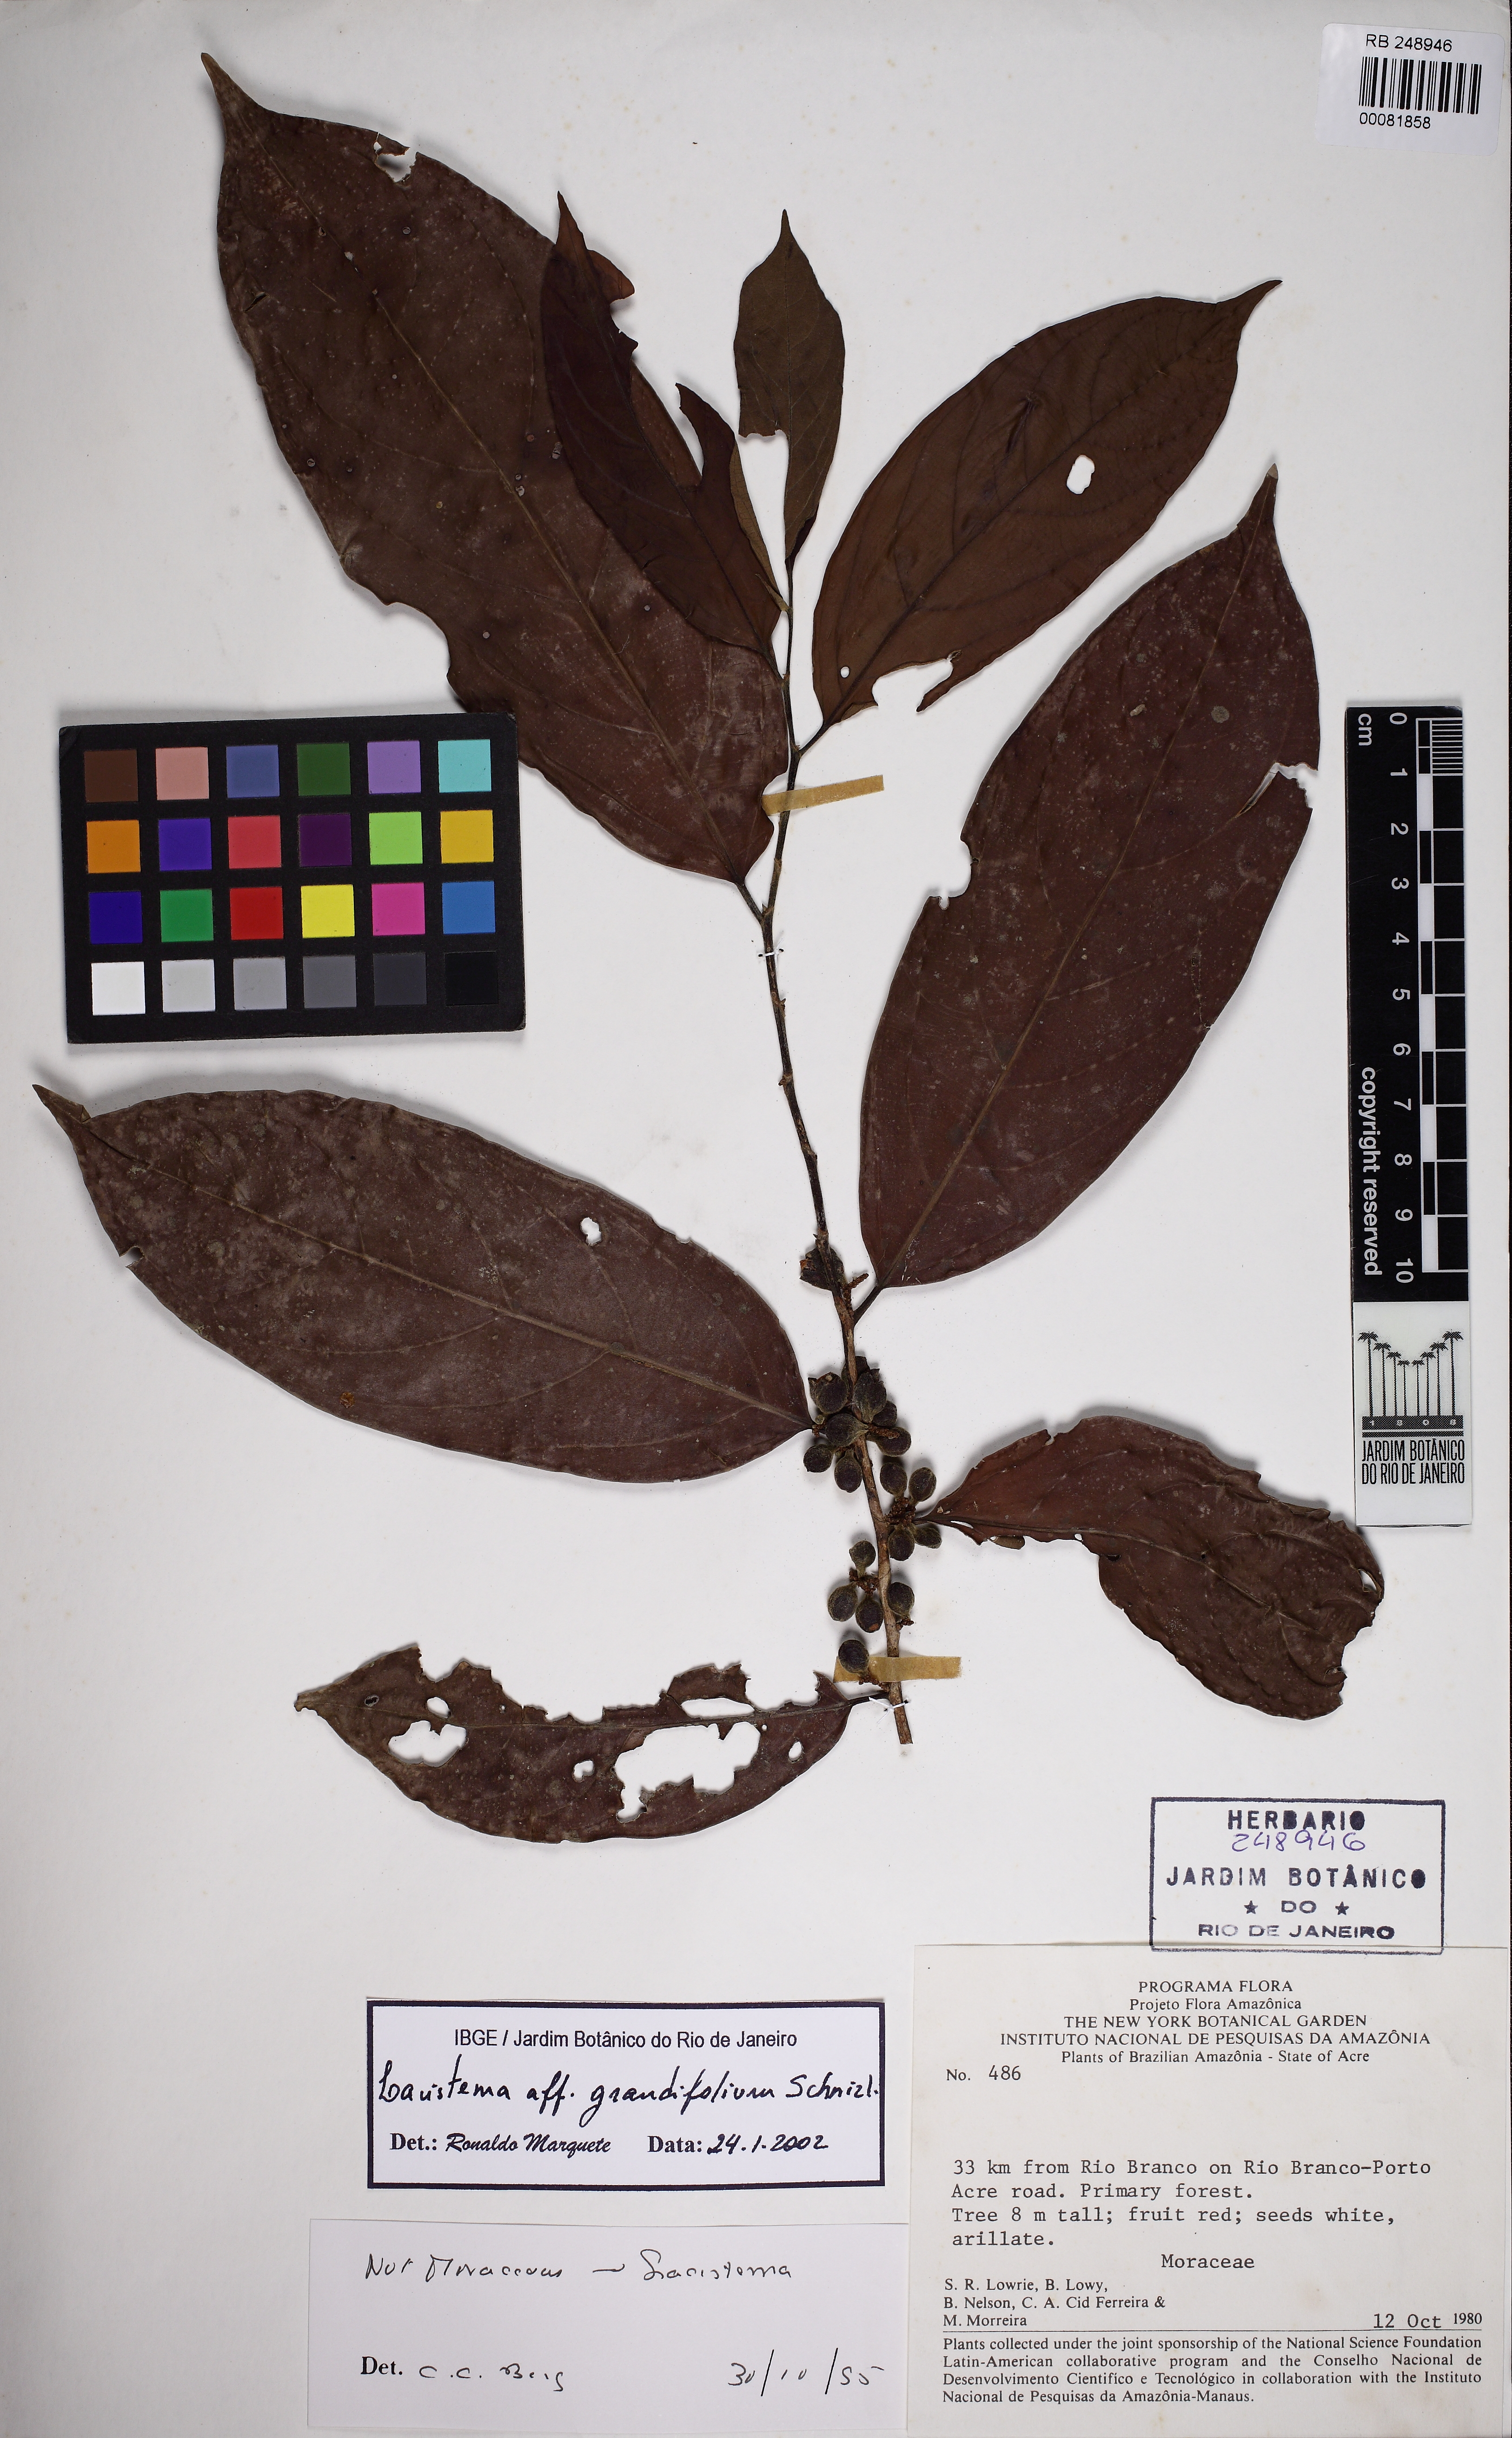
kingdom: Plantae
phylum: Tracheophyta
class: Magnoliopsida
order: Malpighiales
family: Lacistemataceae
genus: Lacistema
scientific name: Lacistema grandifolium
